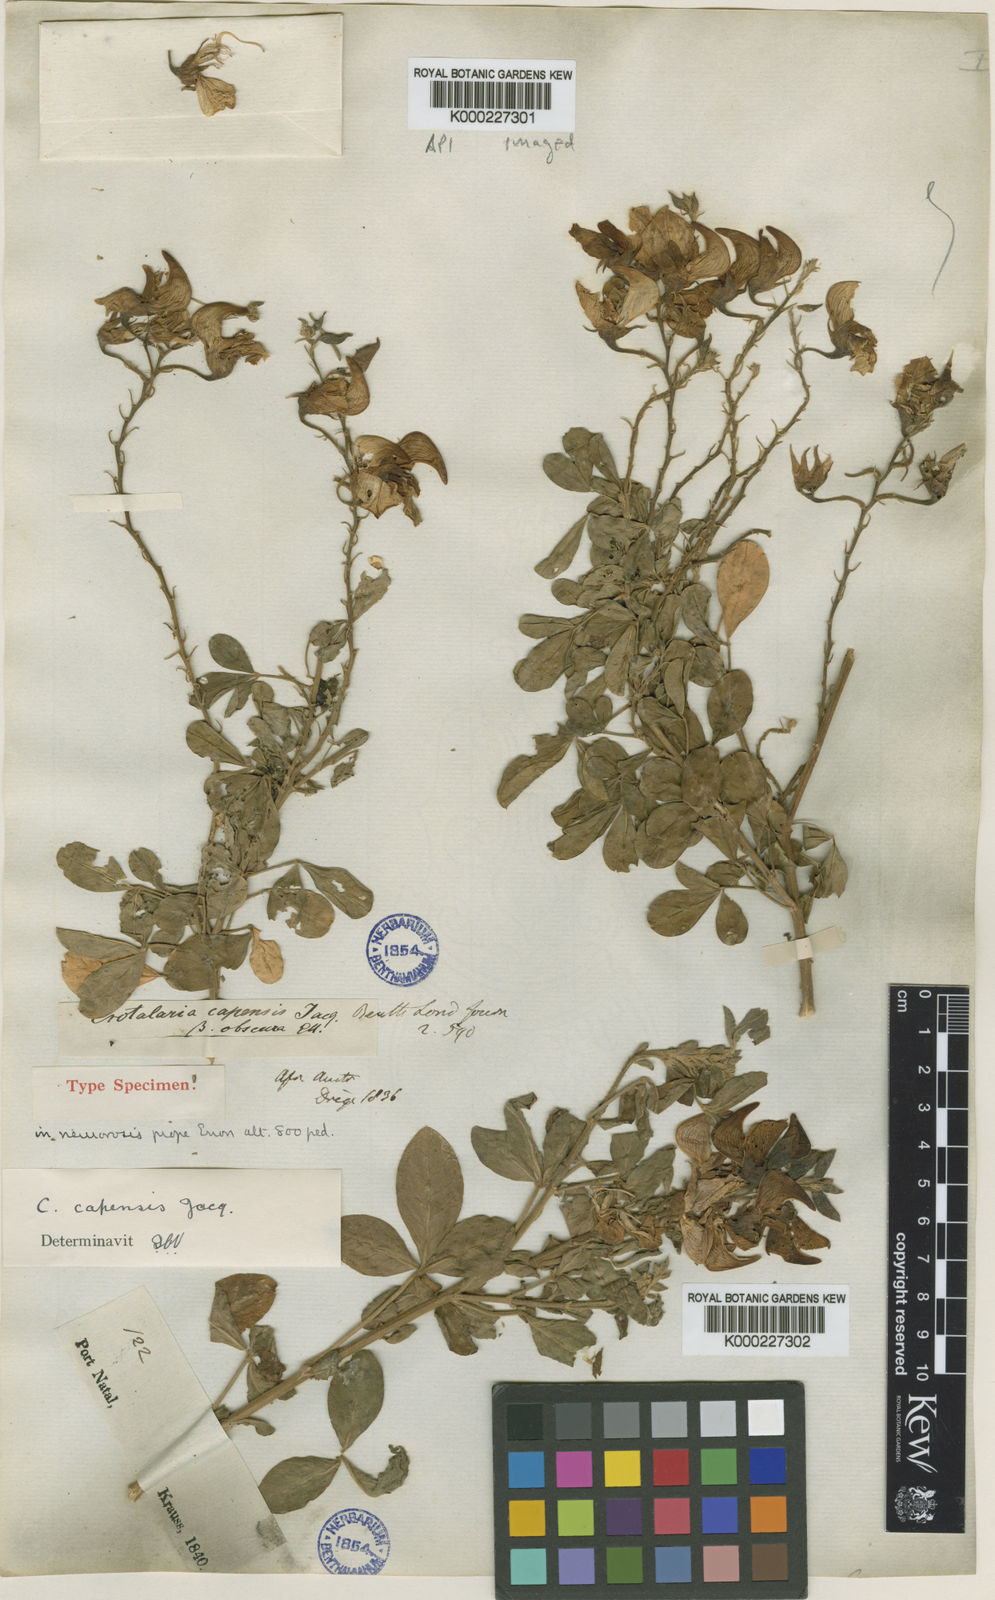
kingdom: Plantae
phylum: Tracheophyta
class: Magnoliopsida
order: Fabales
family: Fabaceae
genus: Crotalaria
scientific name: Crotalaria capensis
